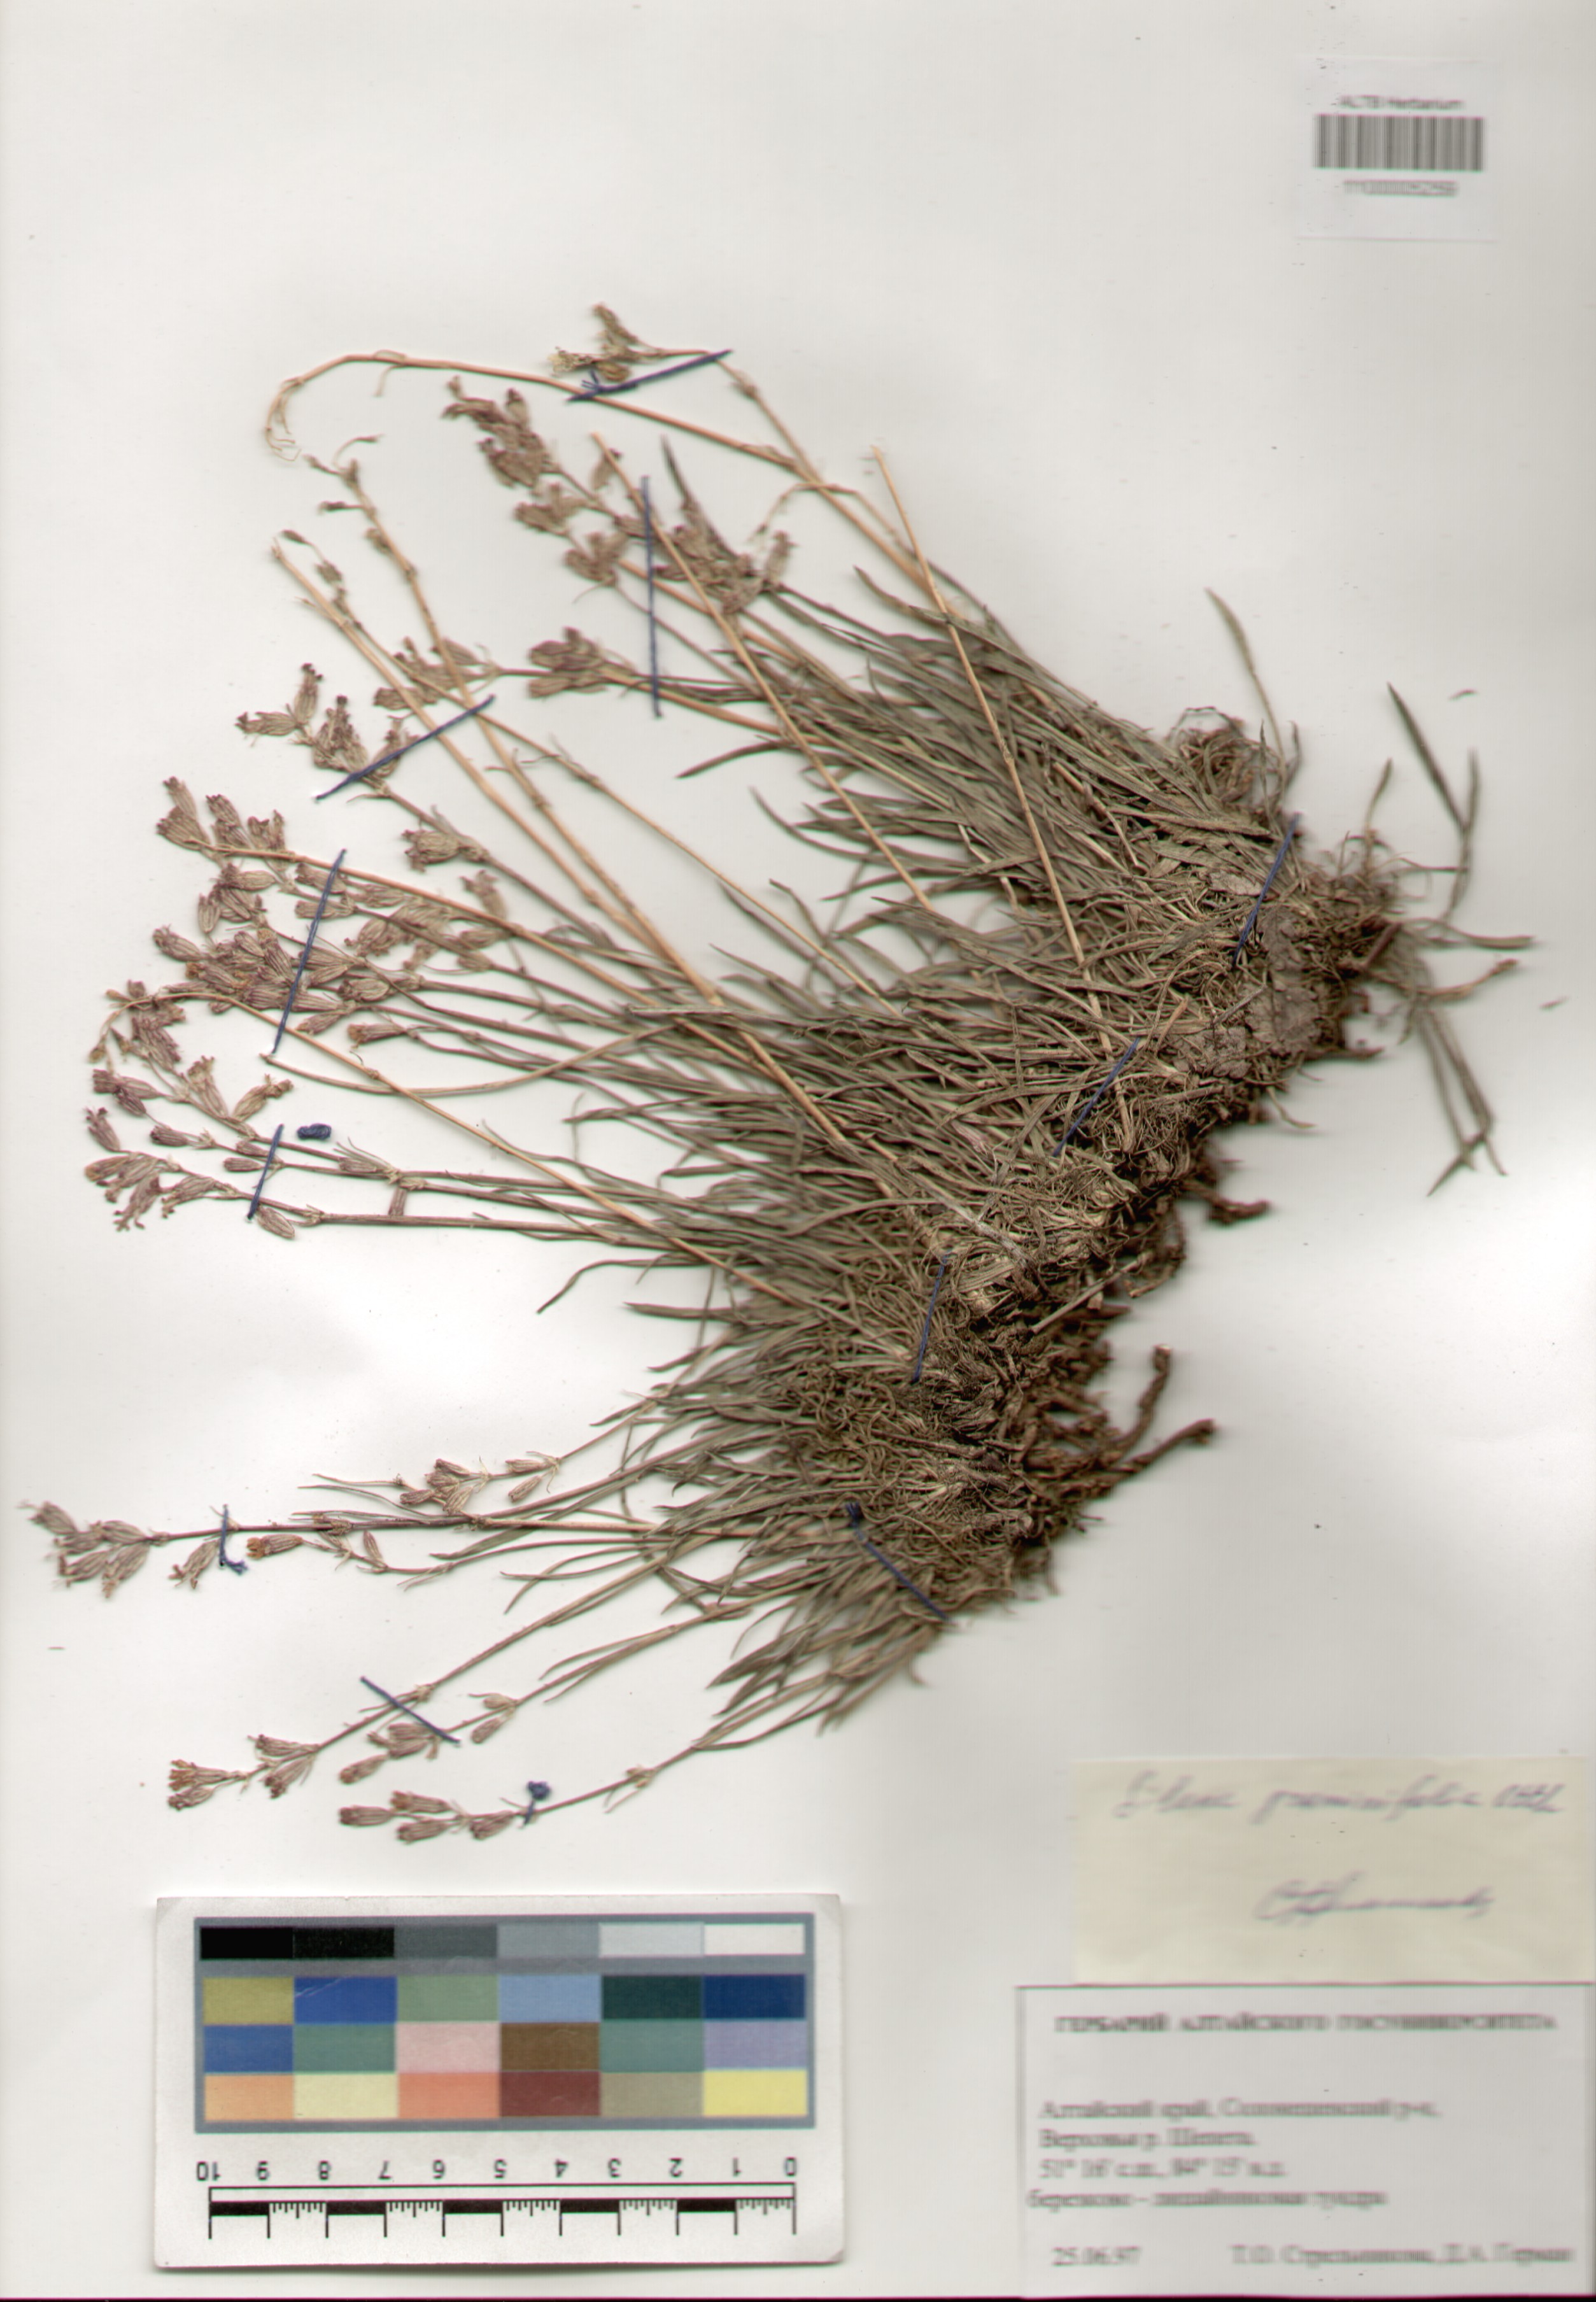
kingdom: Plantae
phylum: Tracheophyta
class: Magnoliopsida
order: Caryophyllales
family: Caryophyllaceae
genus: Silene
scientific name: Silene graminifolia
